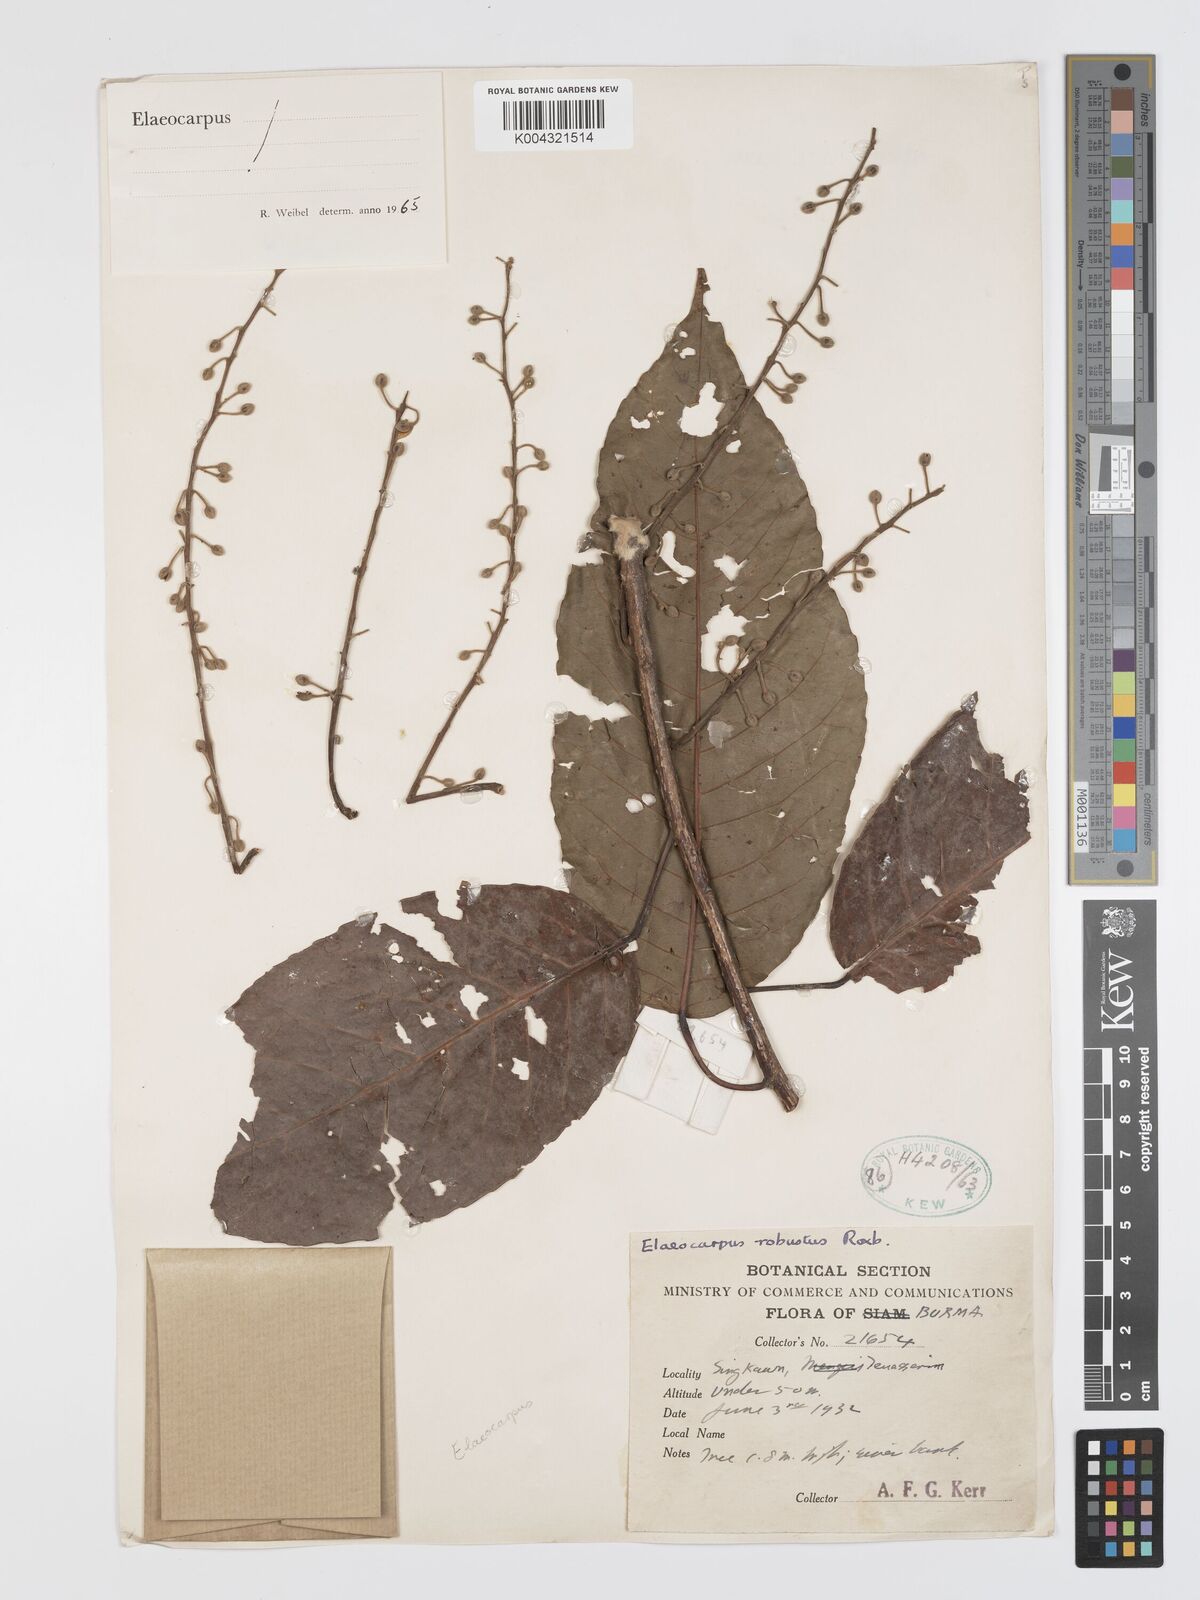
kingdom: Plantae
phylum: Tracheophyta
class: Magnoliopsida
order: Oxalidales
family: Elaeocarpaceae
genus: Elaeocarpus
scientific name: Elaeocarpus robustus
